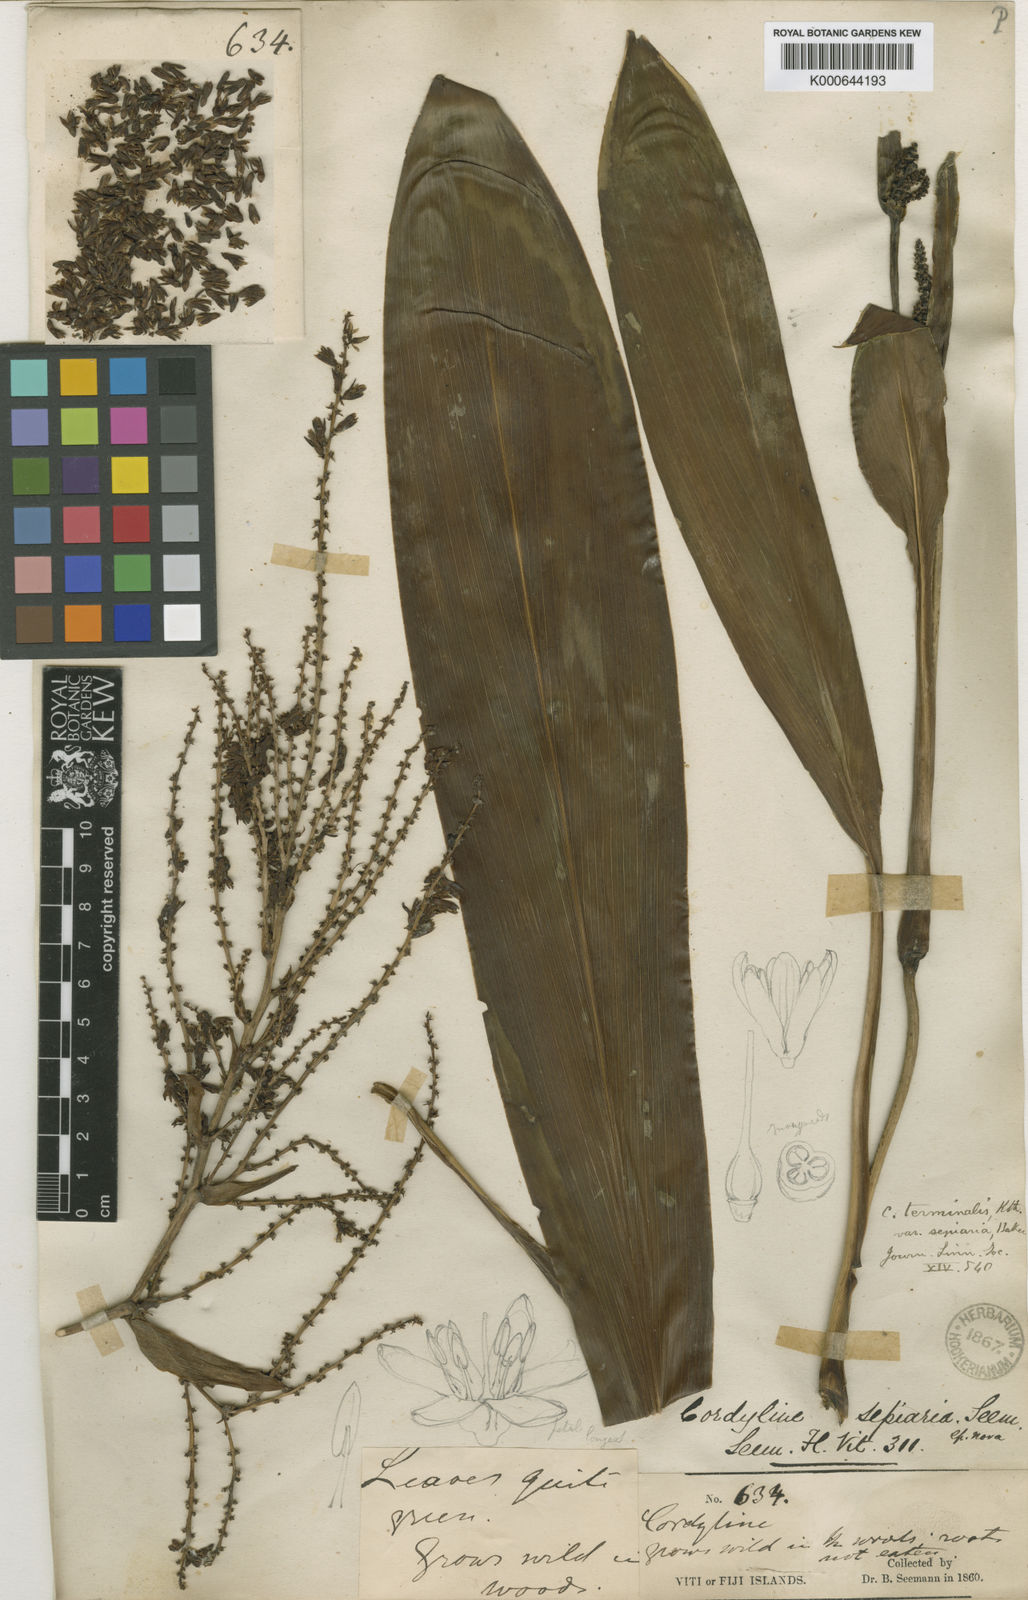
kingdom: Plantae
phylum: Tracheophyta
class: Liliopsida
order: Asparagales
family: Asparagaceae
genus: Cordyline
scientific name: Cordyline fruticosa
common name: Good-luck-plant
